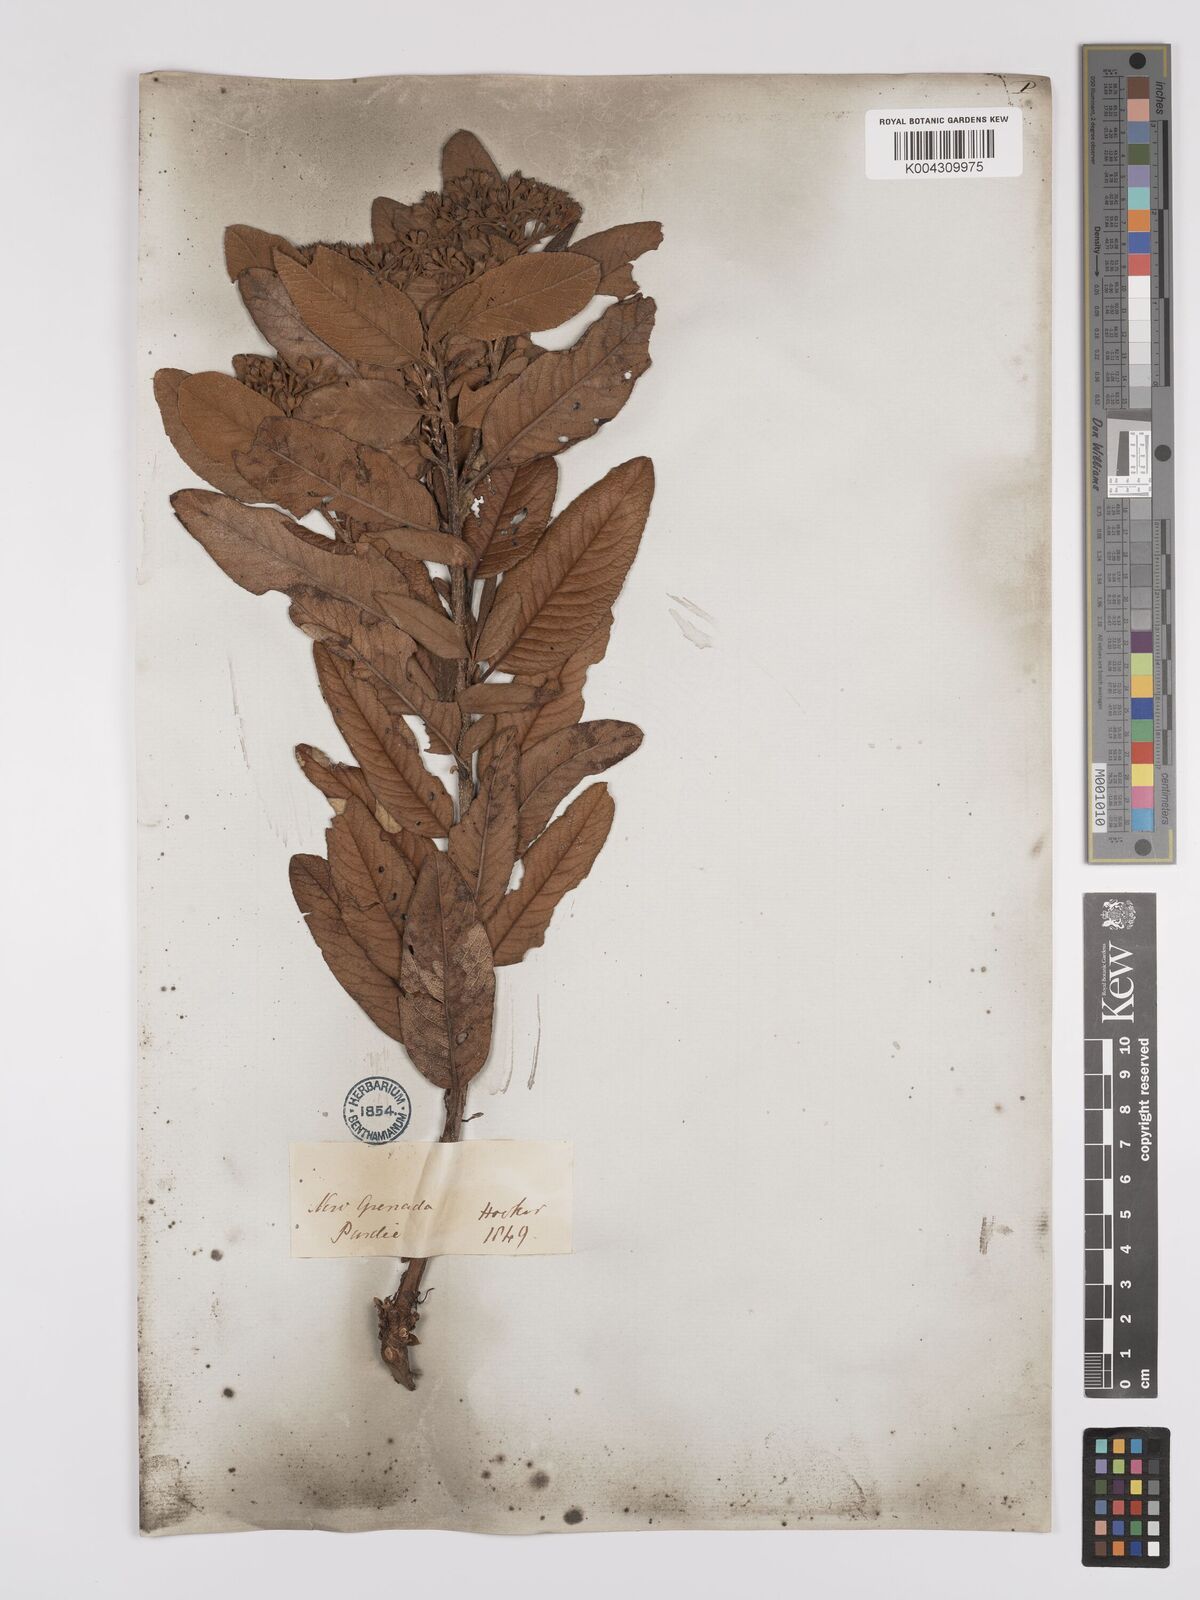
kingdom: Plantae
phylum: Tracheophyta
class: Magnoliopsida
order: Rosales
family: Rosaceae
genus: Hesperomeles
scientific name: Hesperomeles ferruginea
